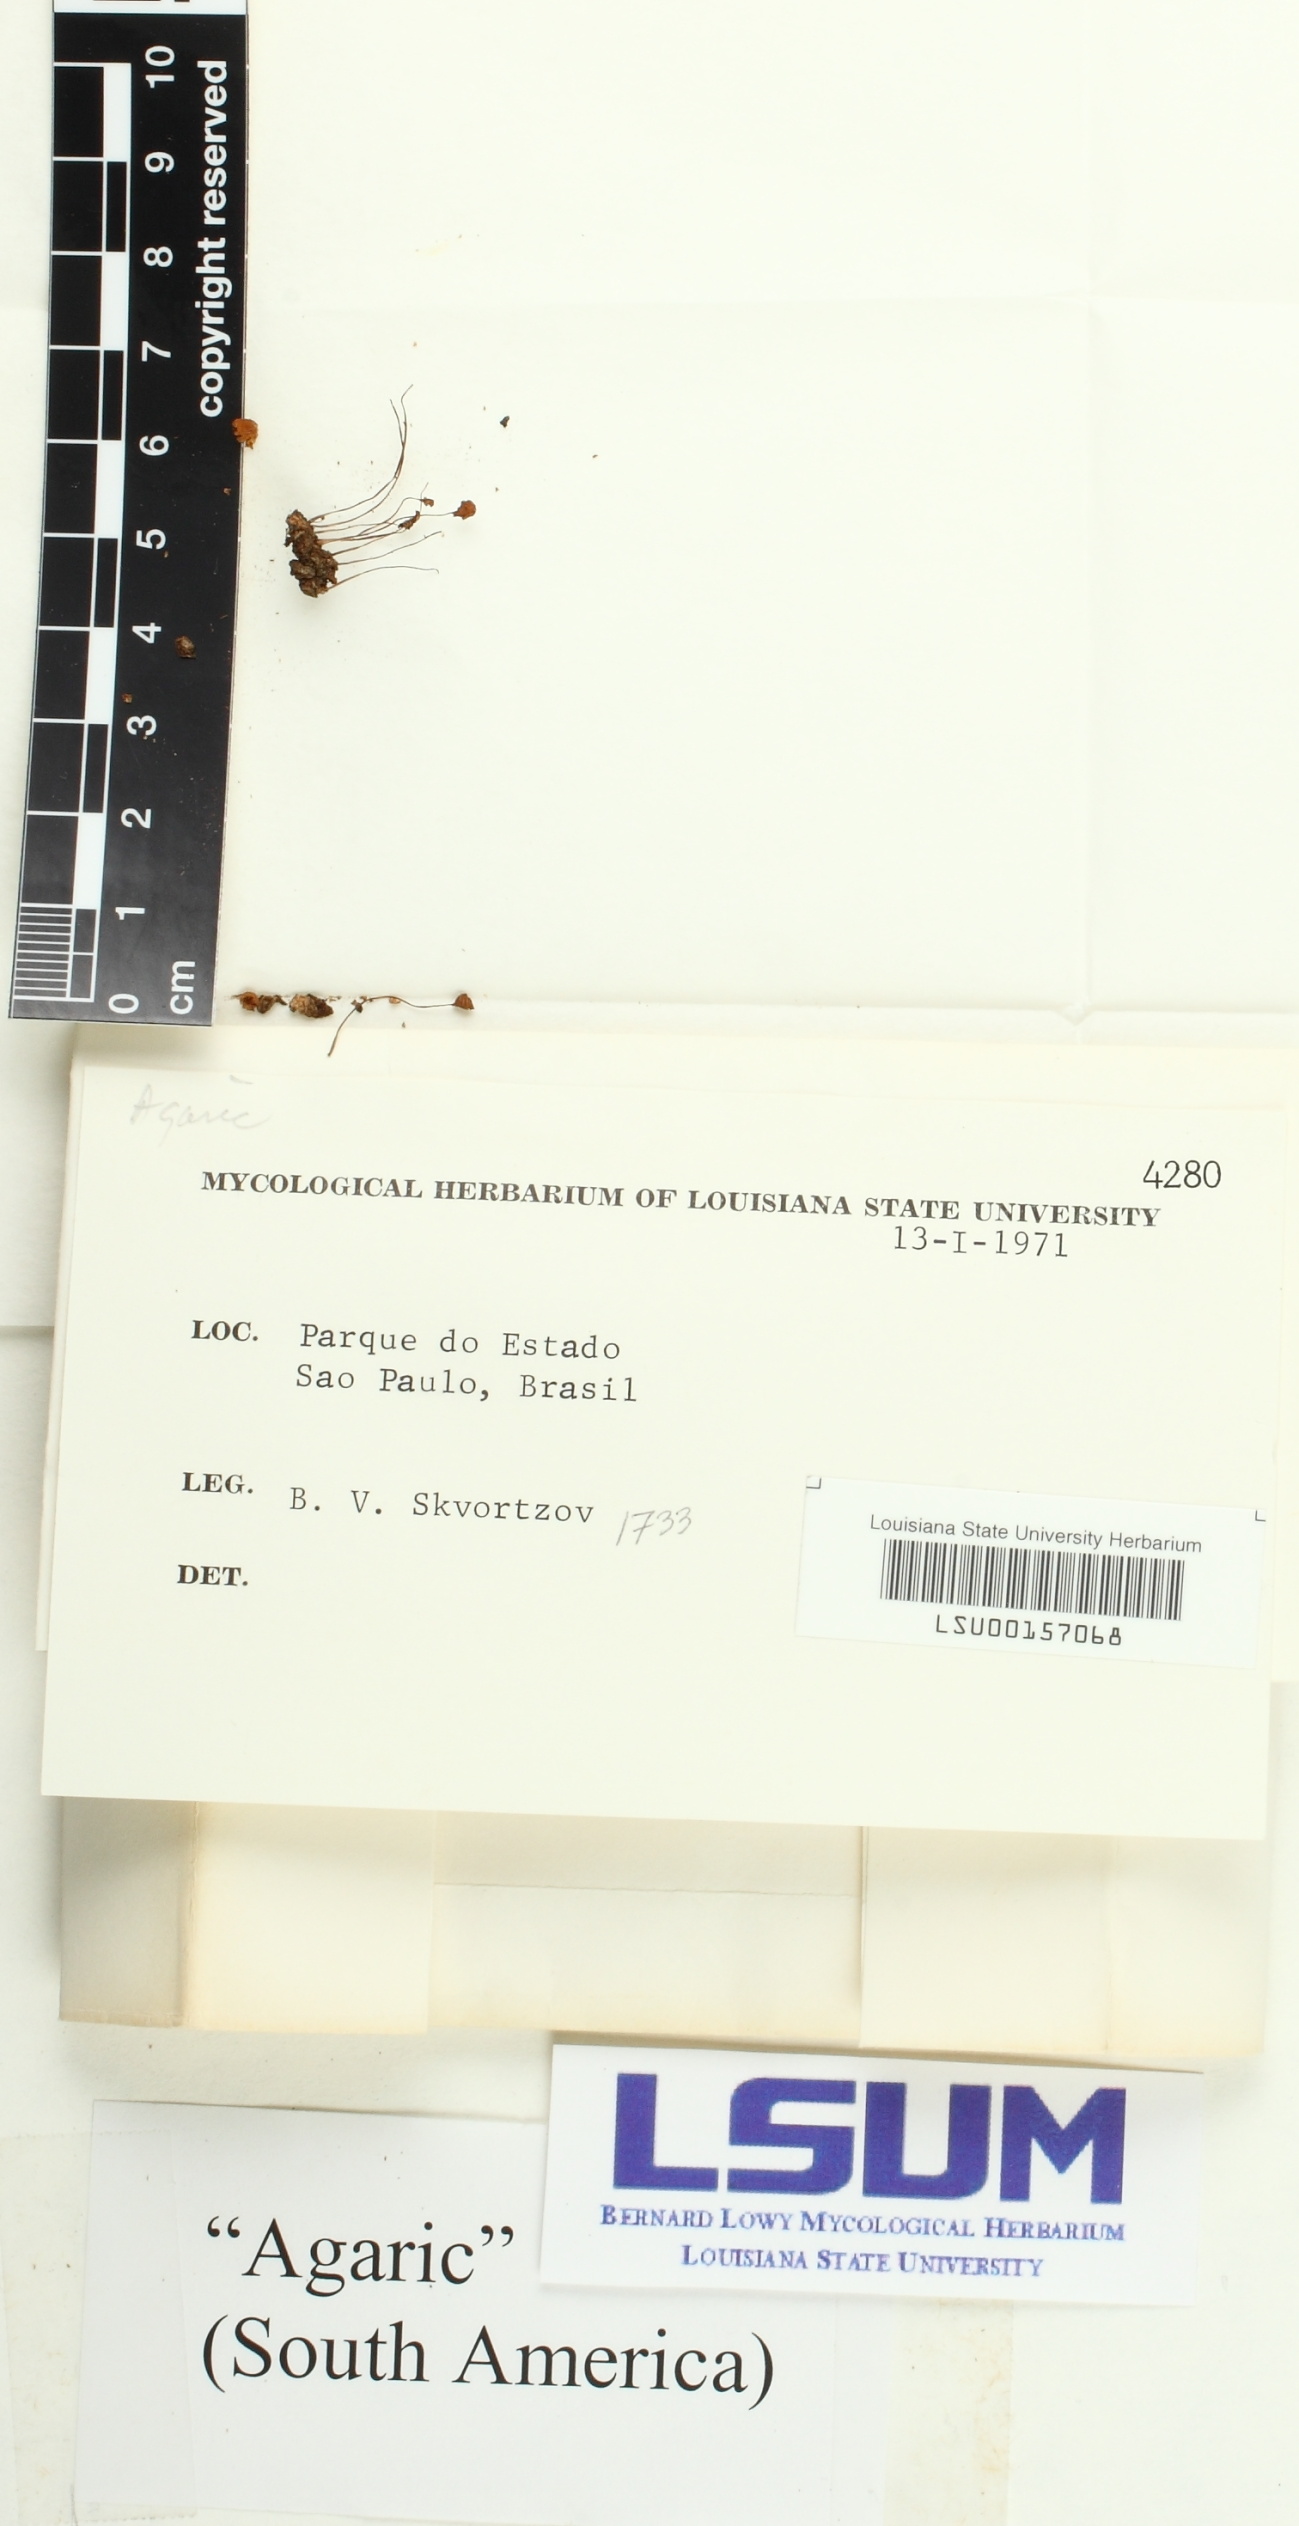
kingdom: Fungi
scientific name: Fungi
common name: Fungi
